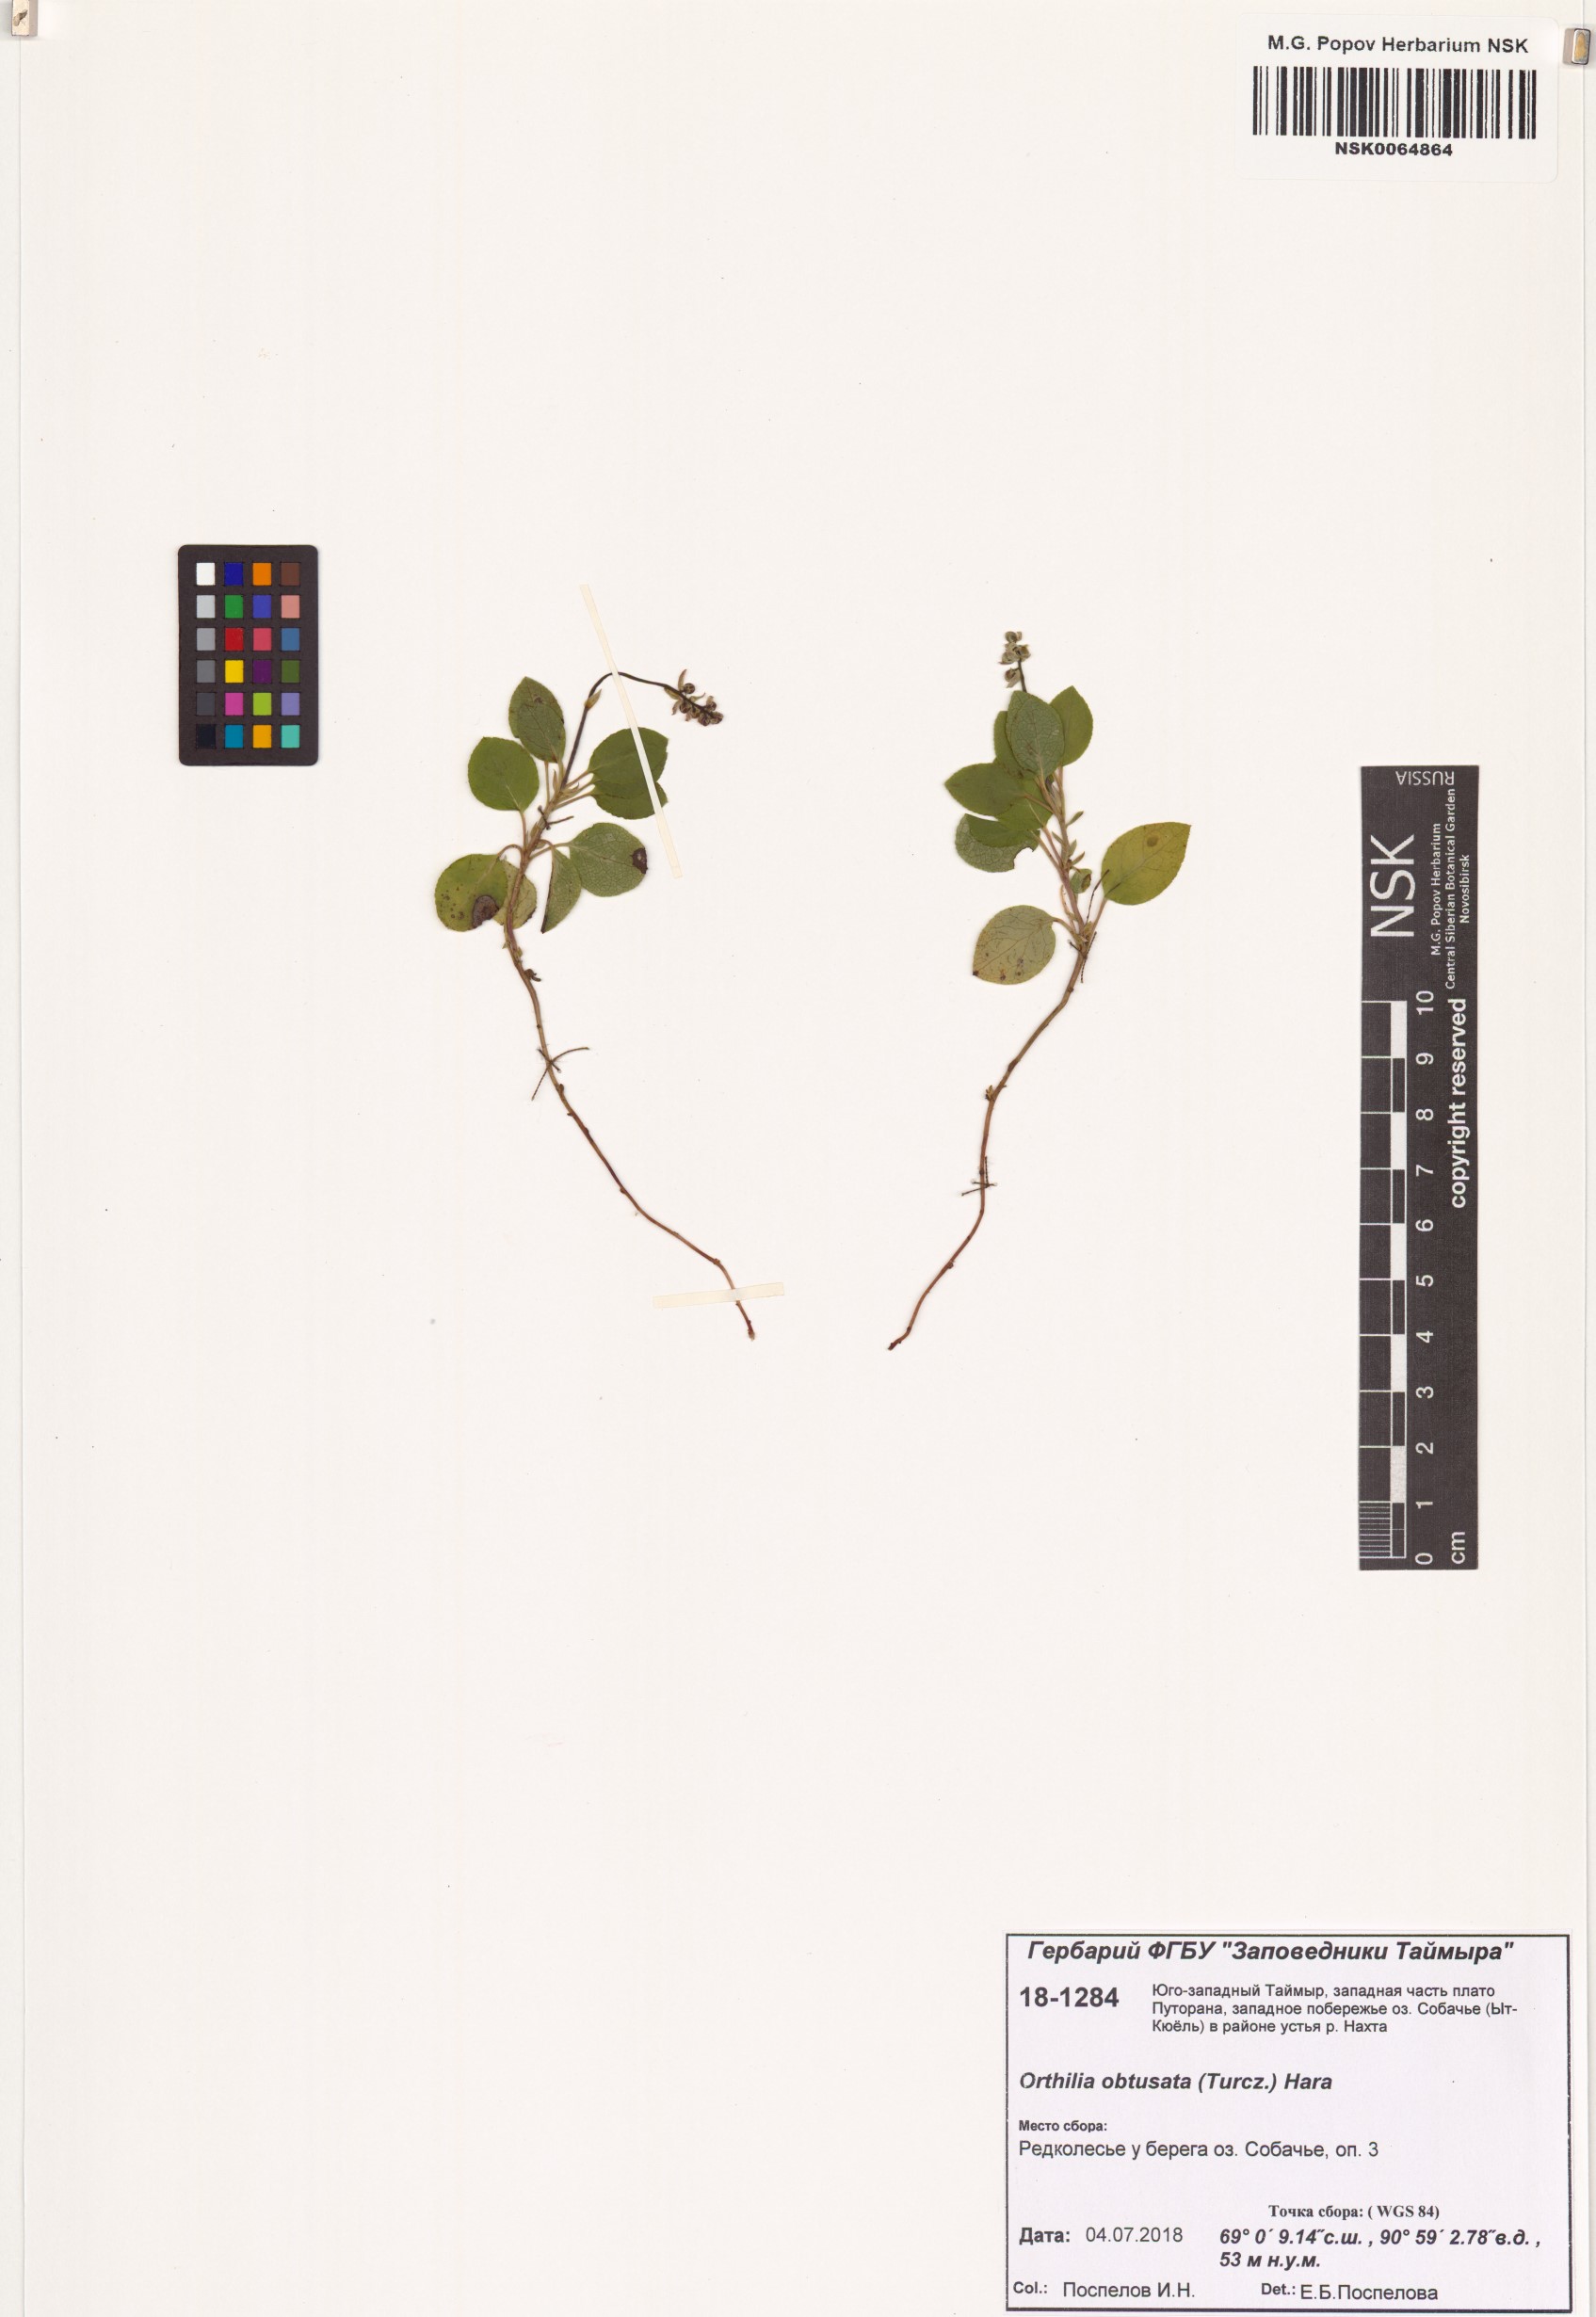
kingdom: Plantae
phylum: Tracheophyta
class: Magnoliopsida
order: Ericales
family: Ericaceae
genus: Orthilia
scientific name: Orthilia secunda
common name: One-sided orthilia
